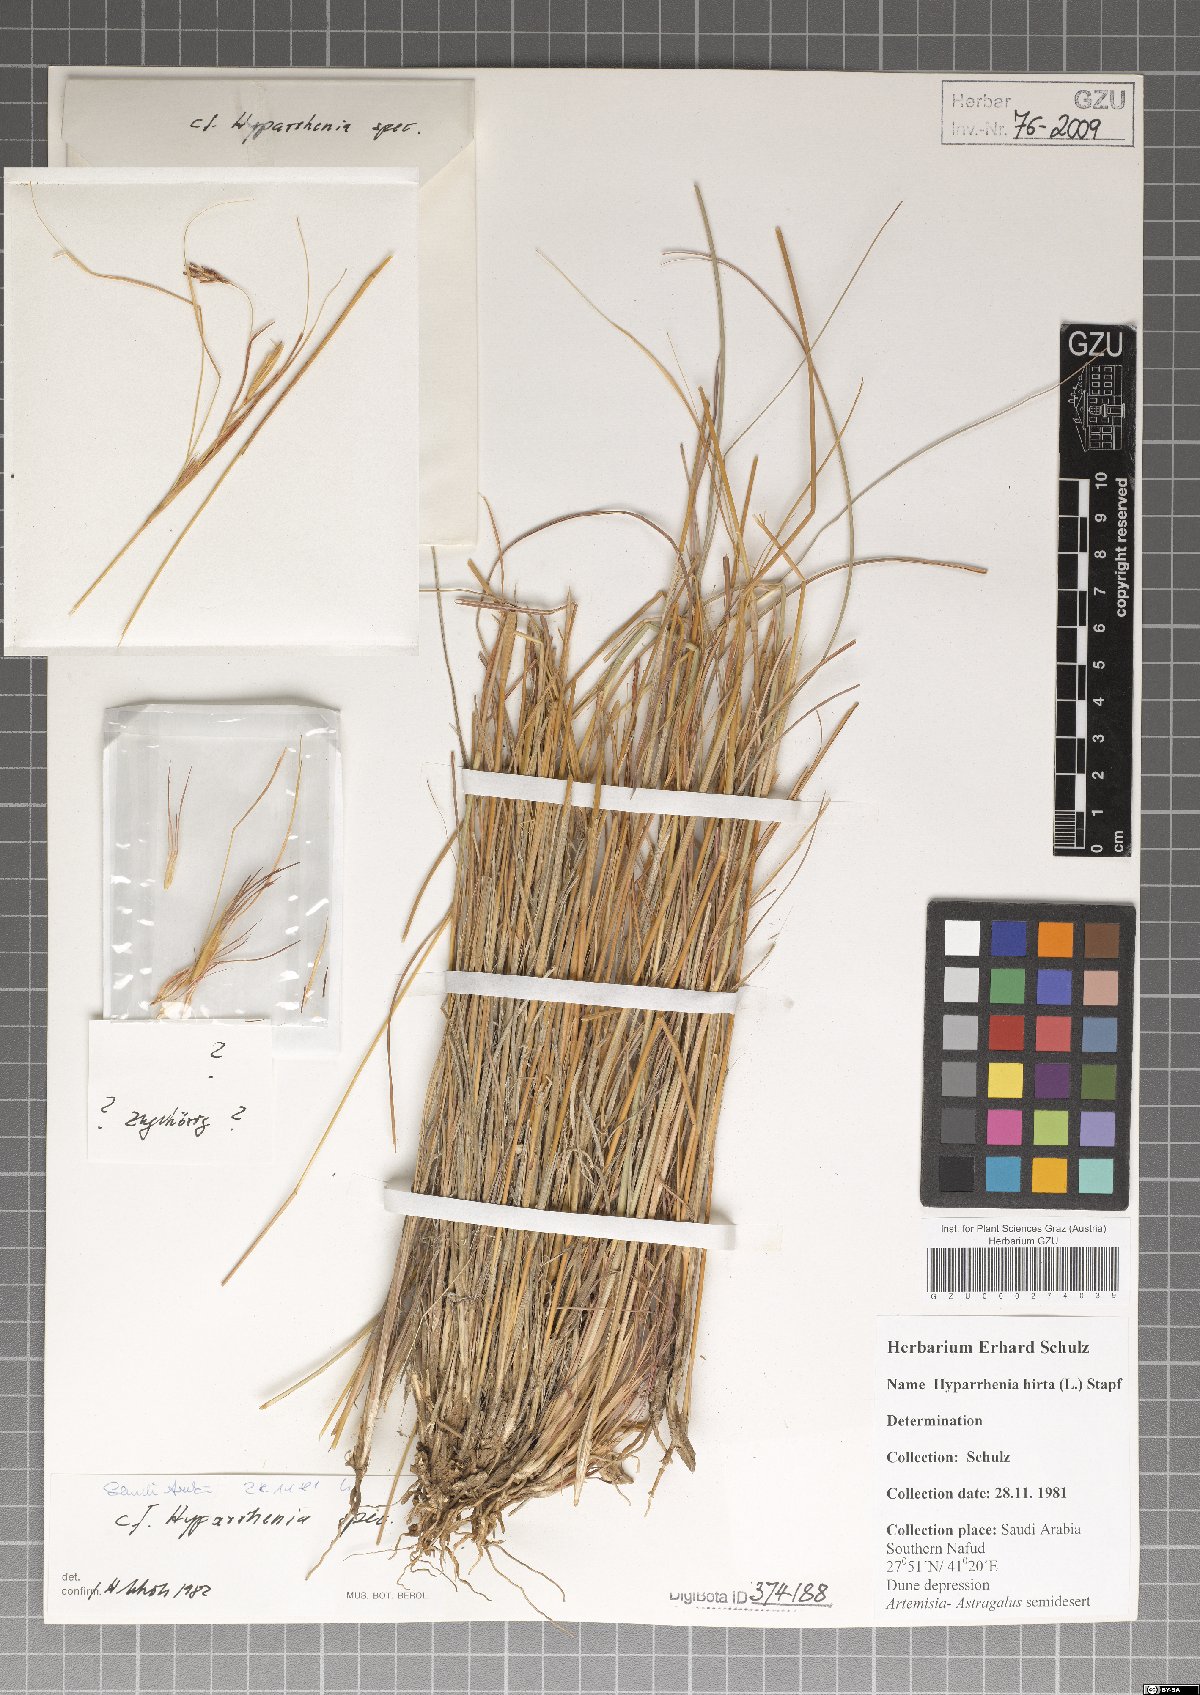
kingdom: Plantae
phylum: Tracheophyta
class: Liliopsida
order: Poales
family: Poaceae
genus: Hyparrhenia
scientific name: Hyparrhenia
